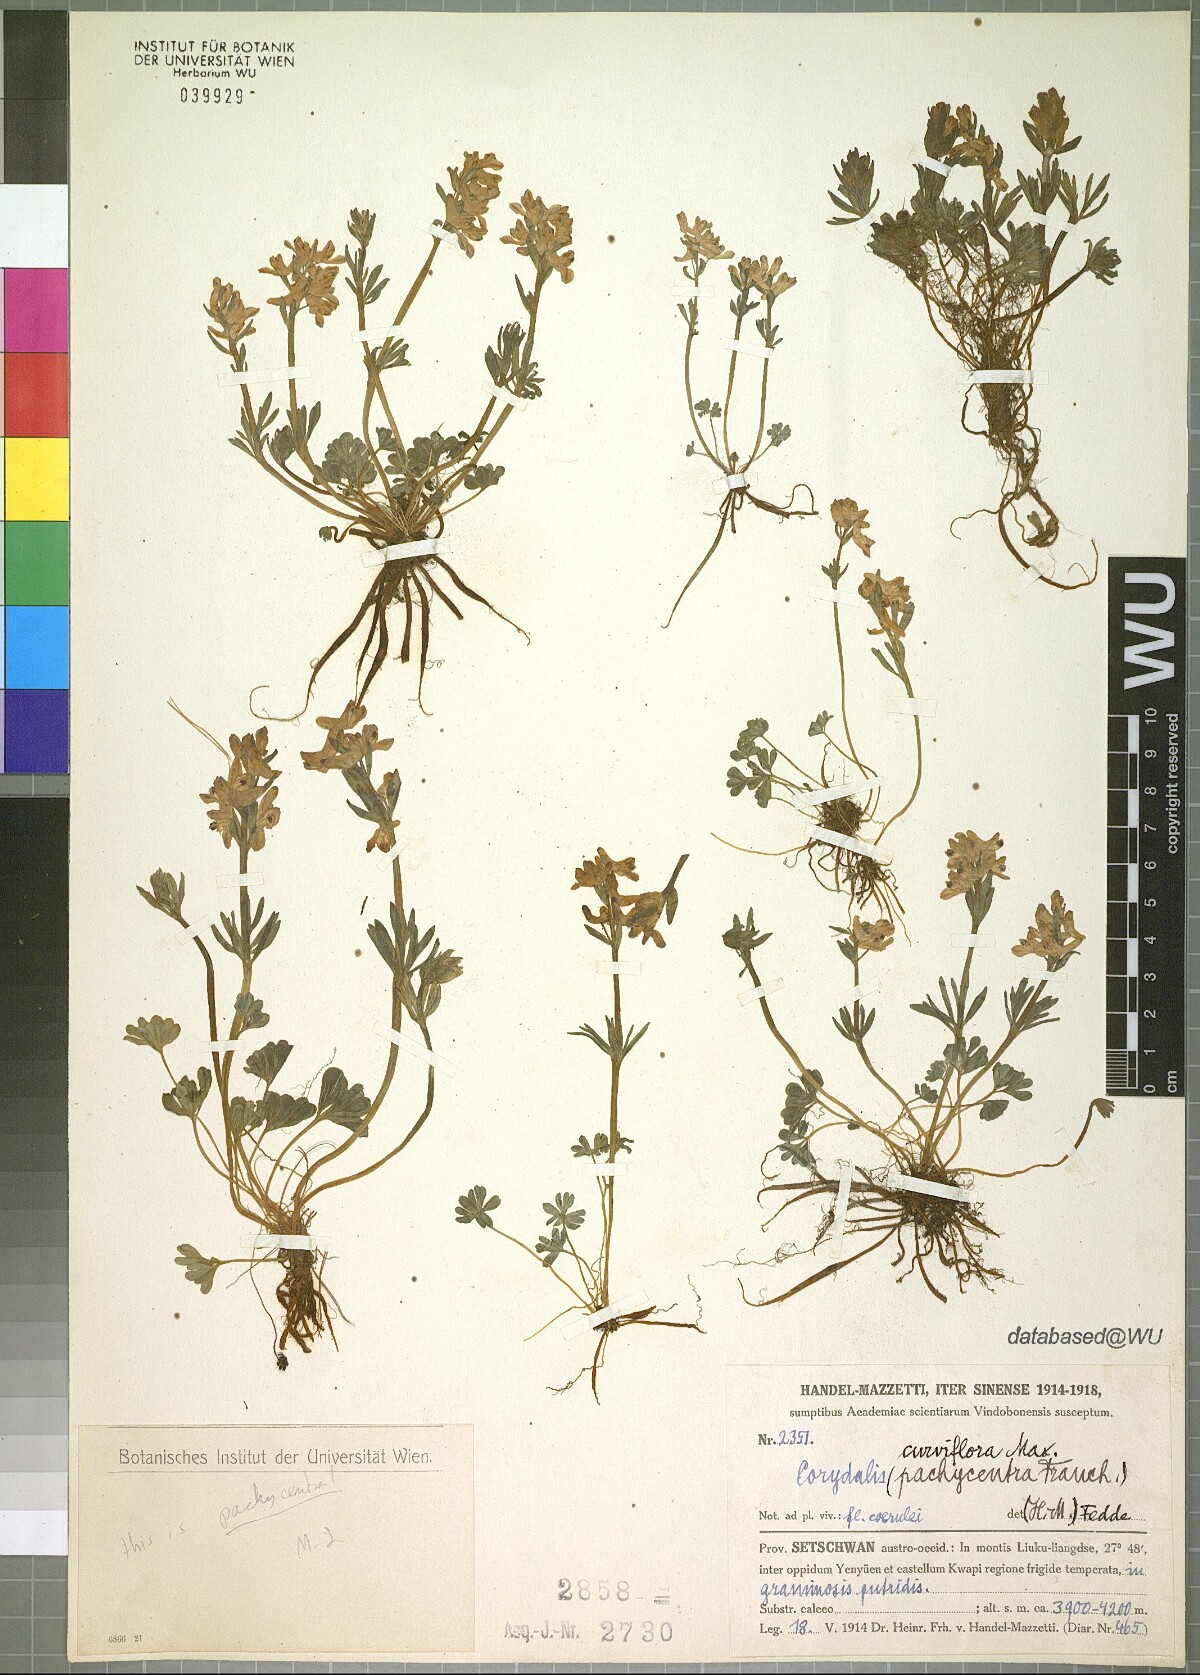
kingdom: Plantae
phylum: Tracheophyta
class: Magnoliopsida
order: Ranunculales
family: Papaveraceae
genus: Corydalis
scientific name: Corydalis pachycentra
